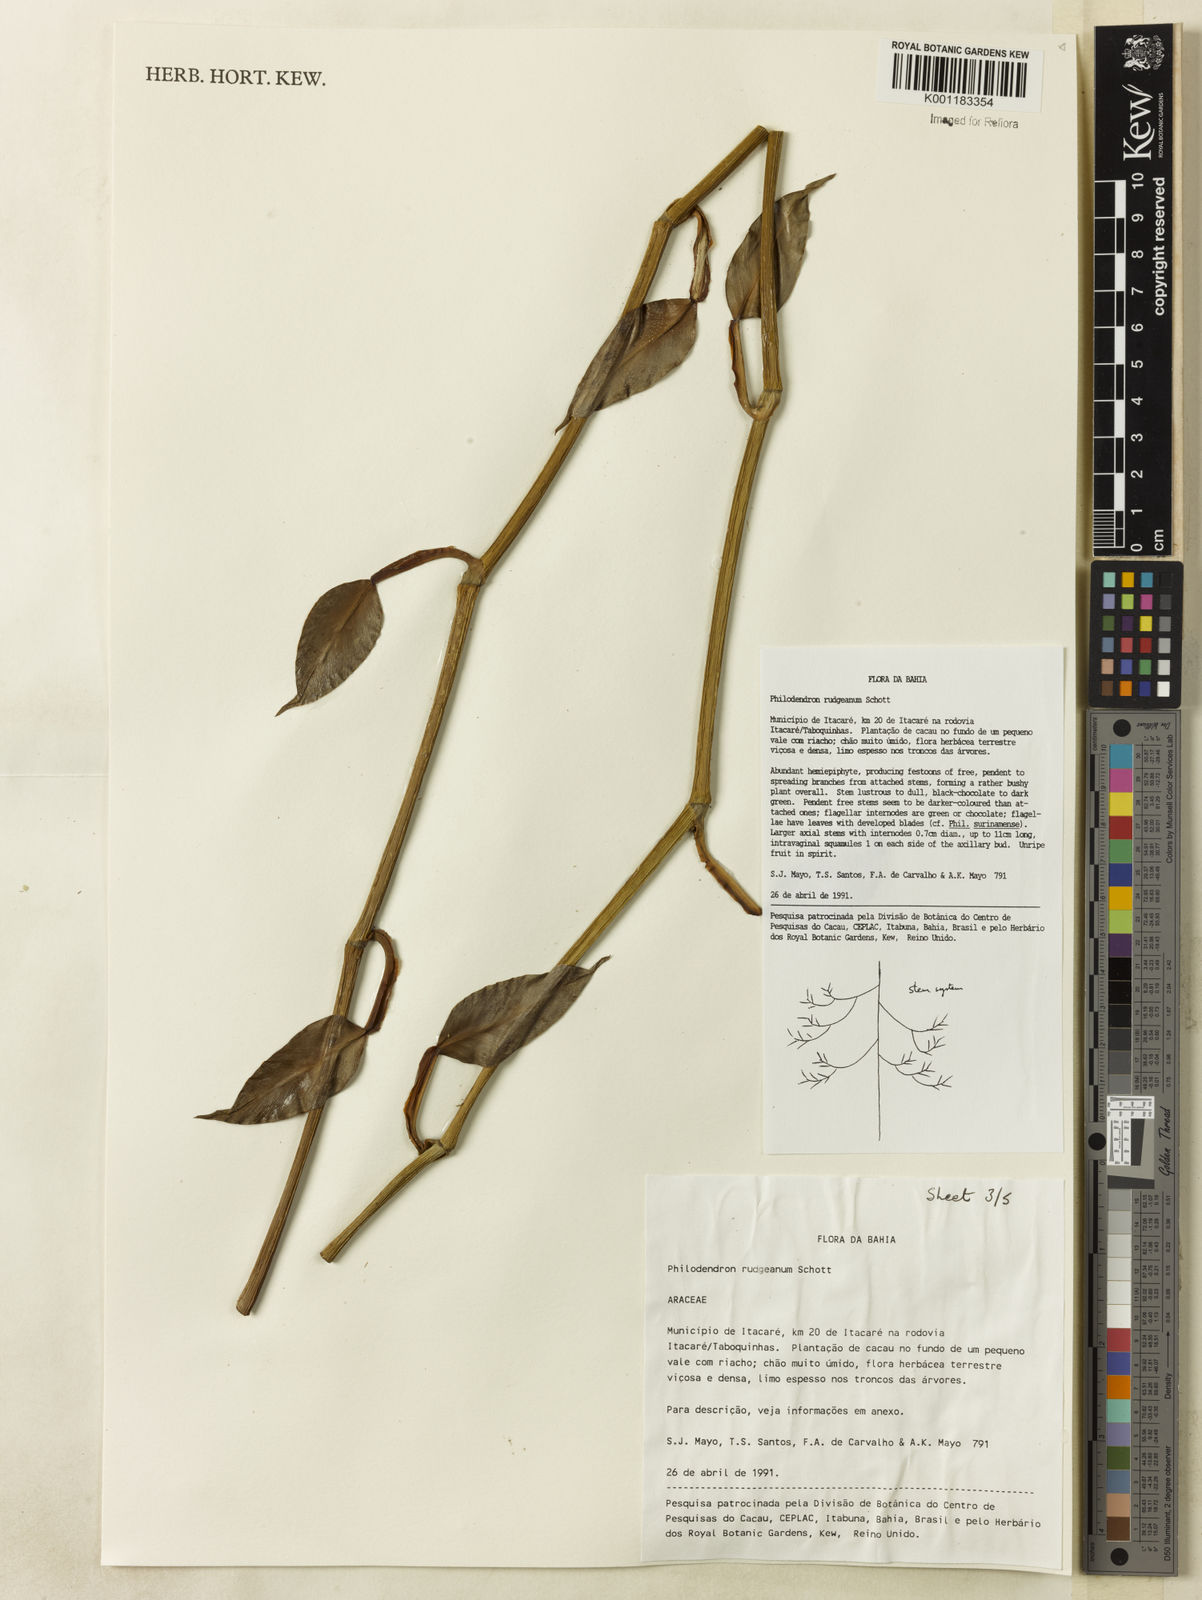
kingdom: Plantae
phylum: Tracheophyta
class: Liliopsida
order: Alismatales
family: Araceae
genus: Philodendron
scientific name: Philodendron rudgeanum
